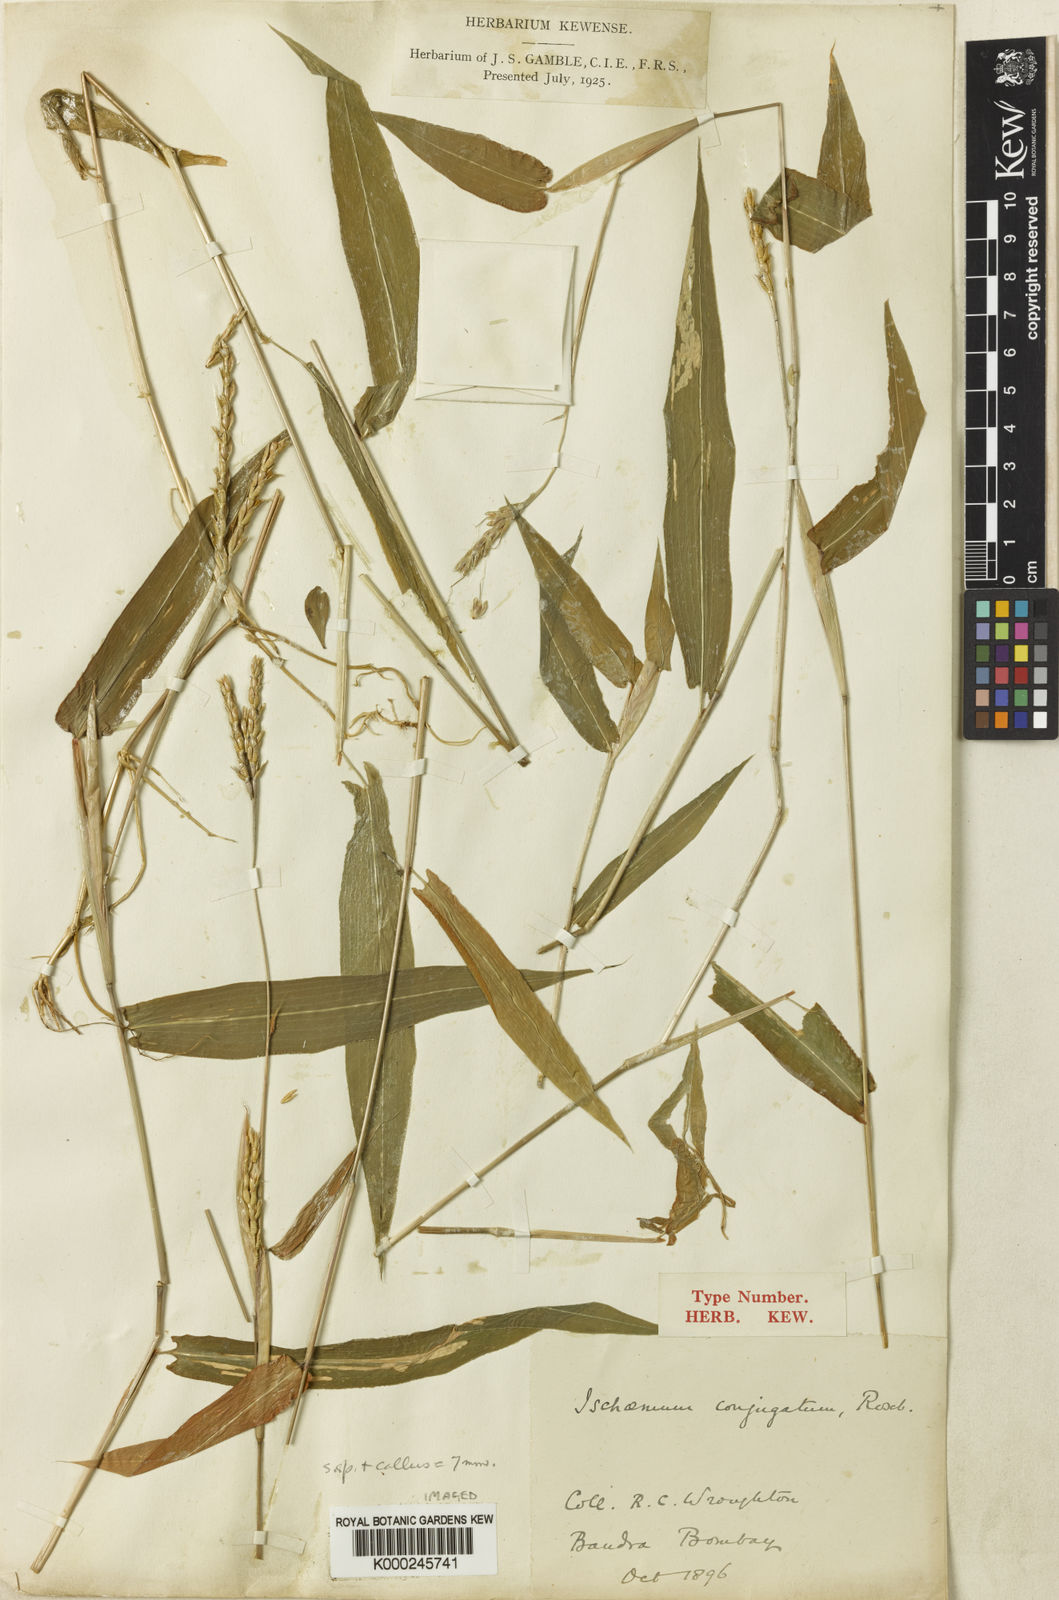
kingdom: Plantae
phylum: Tracheophyta
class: Liliopsida
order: Poales
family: Poaceae
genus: Ischaemum
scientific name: Ischaemum huegelii
